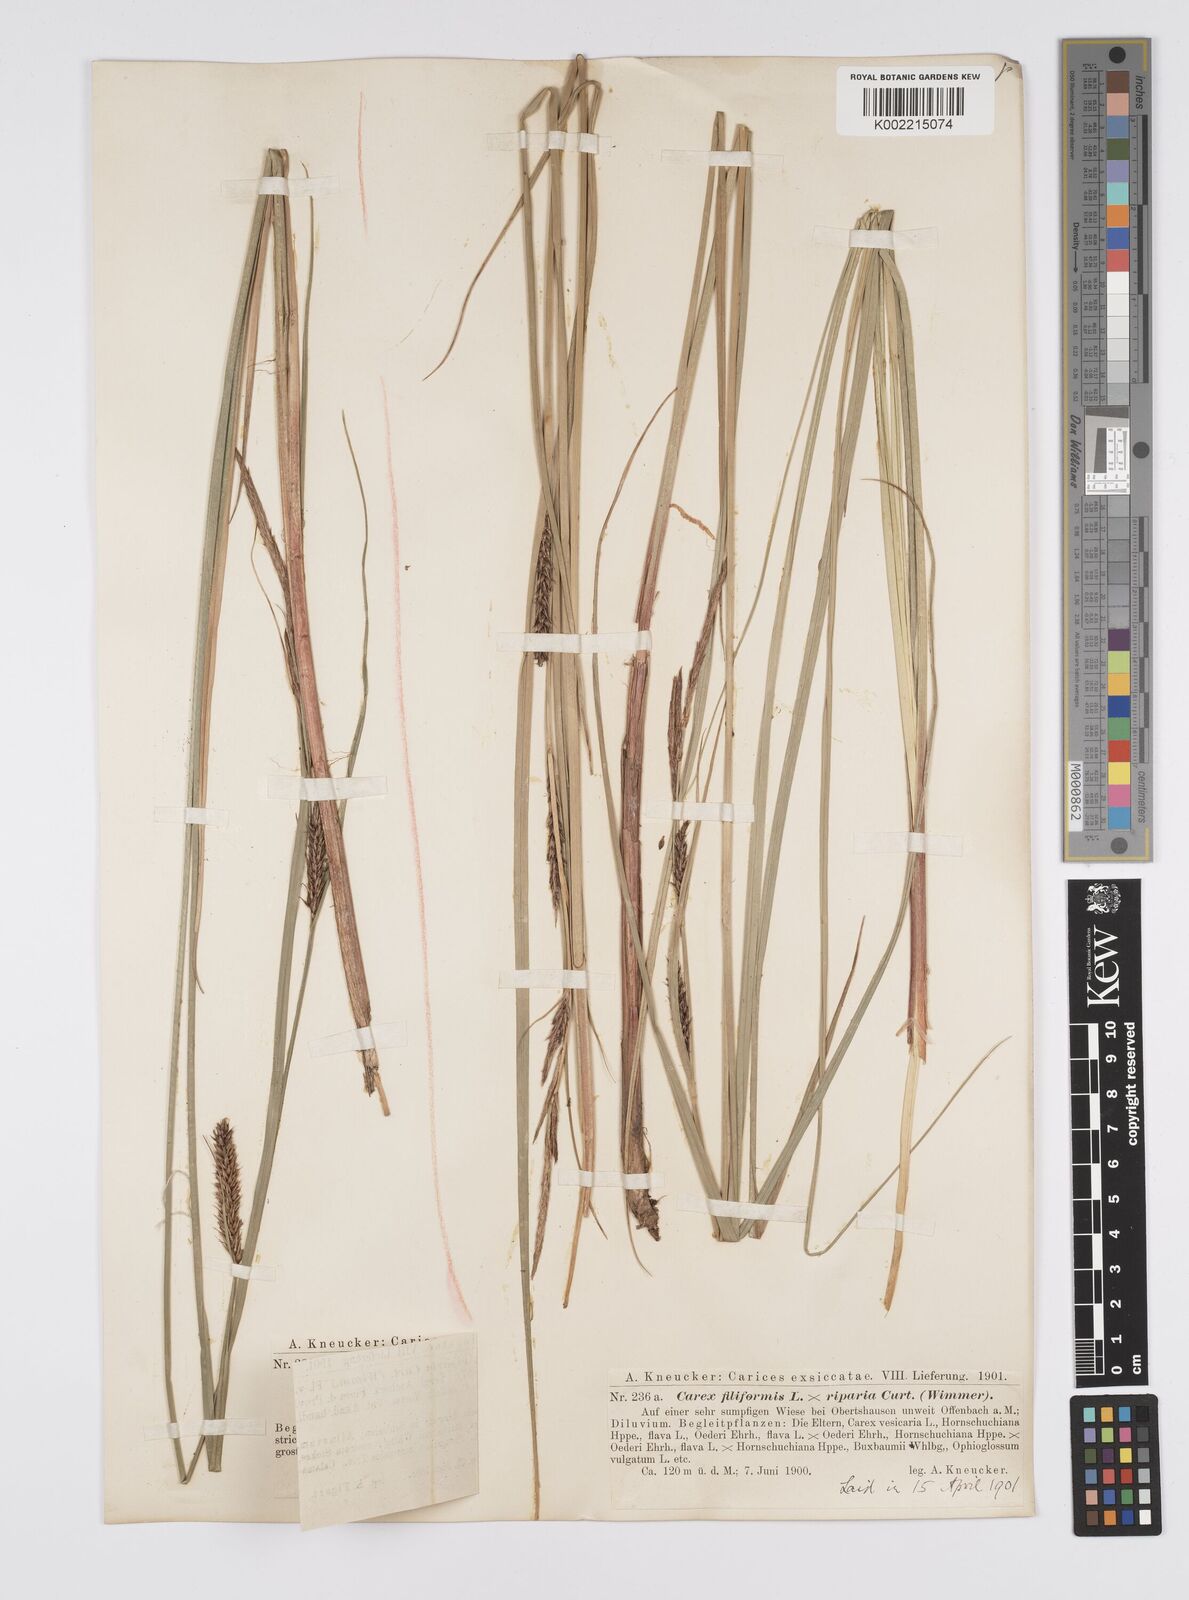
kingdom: Plantae
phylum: Tracheophyta
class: Liliopsida
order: Poales
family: Cyperaceae
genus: Carex
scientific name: Carex evoluta
